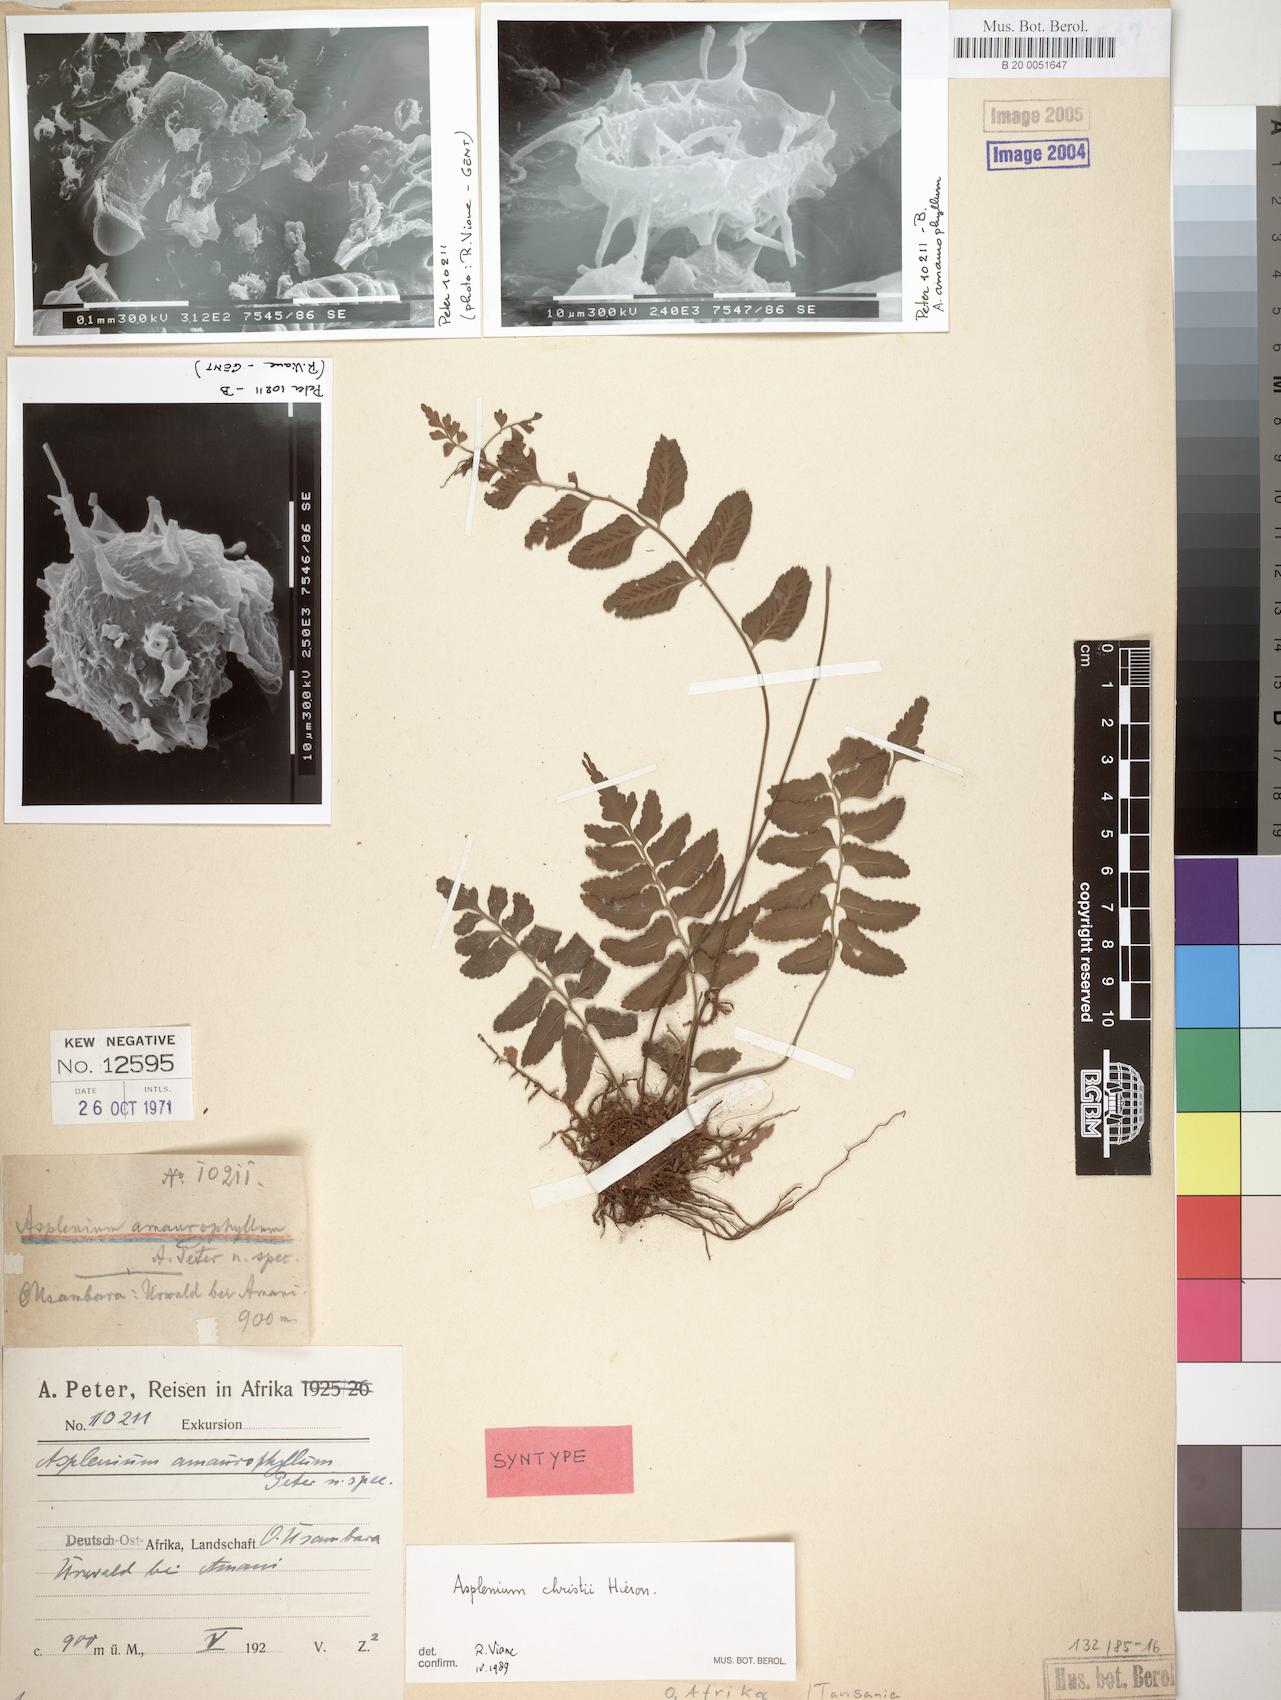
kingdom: Plantae
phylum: Tracheophyta
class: Polypodiopsida
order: Polypodiales
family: Aspleniaceae
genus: Asplenium
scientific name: Asplenium christii
